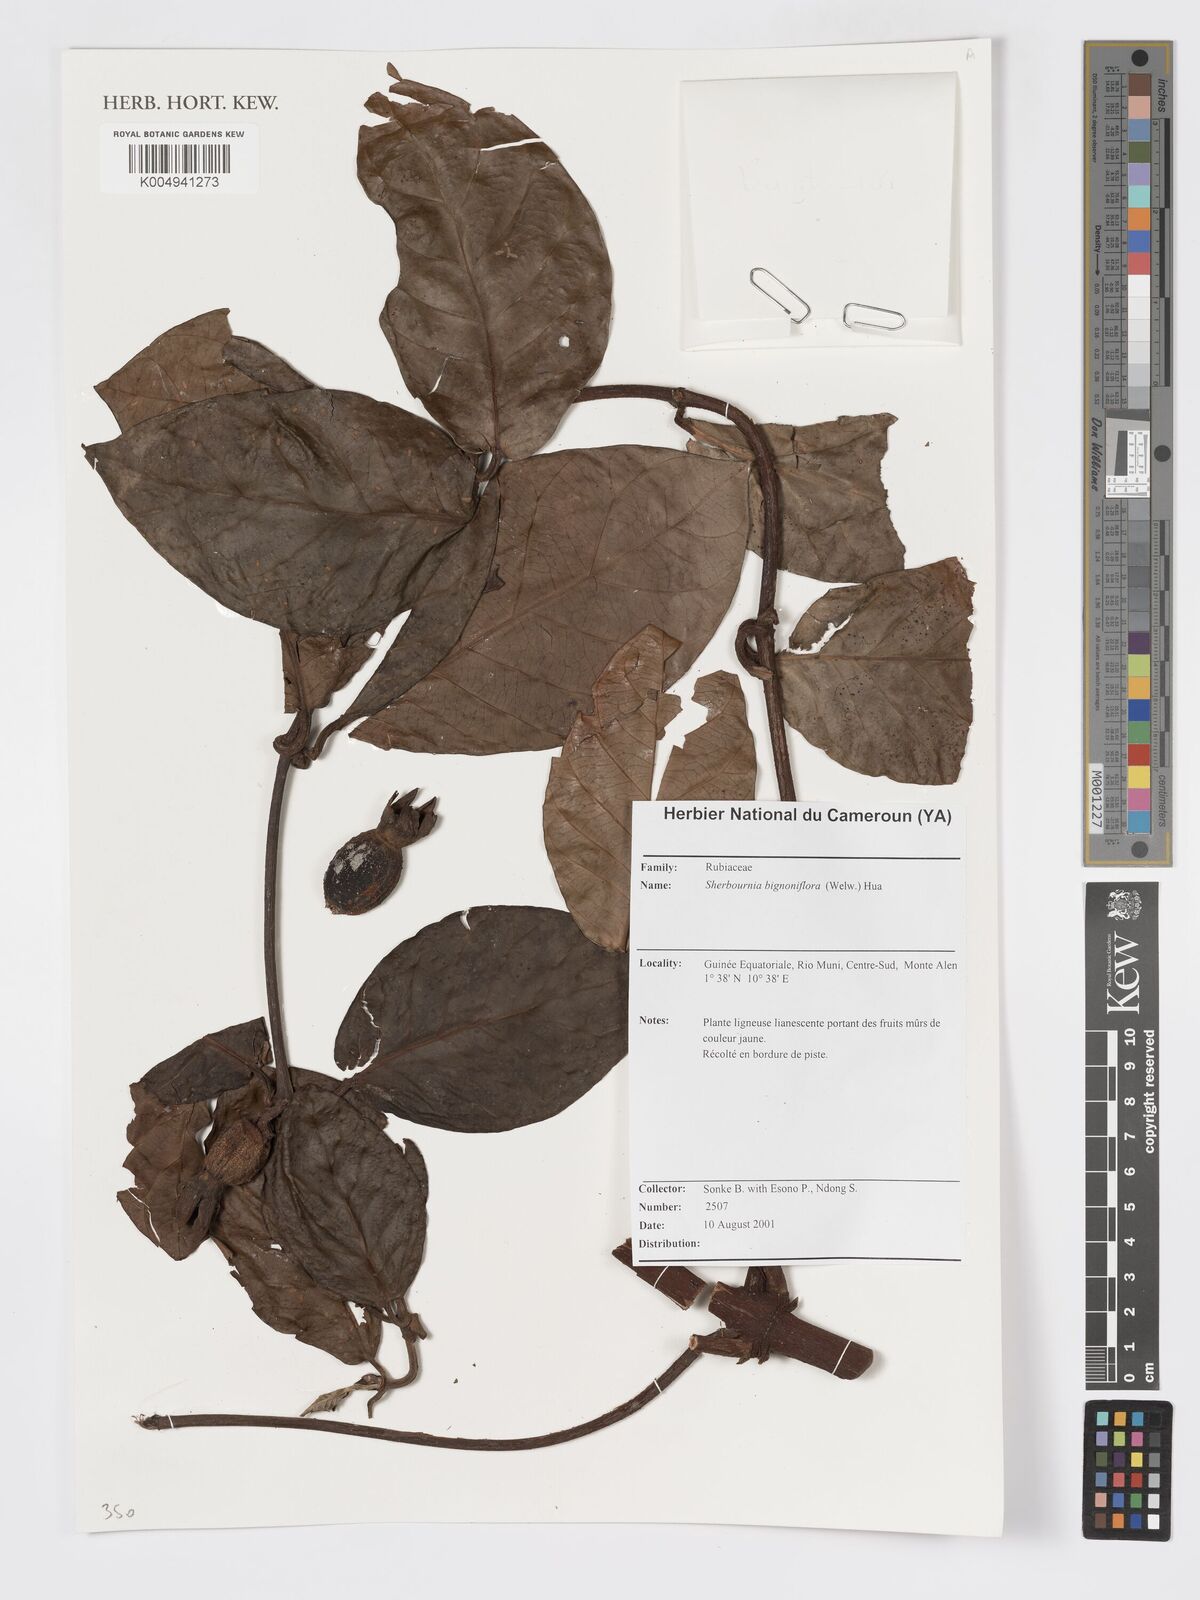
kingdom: Plantae
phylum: Tracheophyta
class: Magnoliopsida
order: Gentianales
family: Rubiaceae
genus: Sherbournia
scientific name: Sherbournia bignoniiflora
